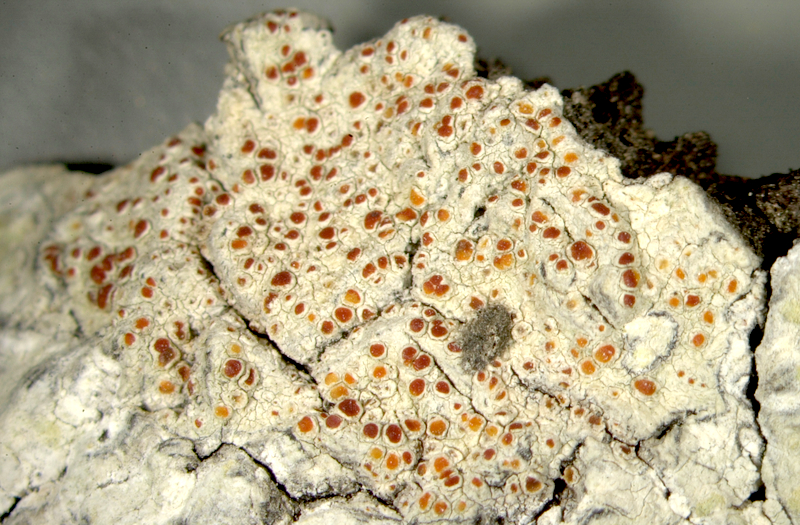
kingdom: Fungi
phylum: Ascomycota
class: Lecanoromycetes
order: Pertusariales
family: Ochrolechiaceae
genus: Ochrolechia
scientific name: Ochrolechia
